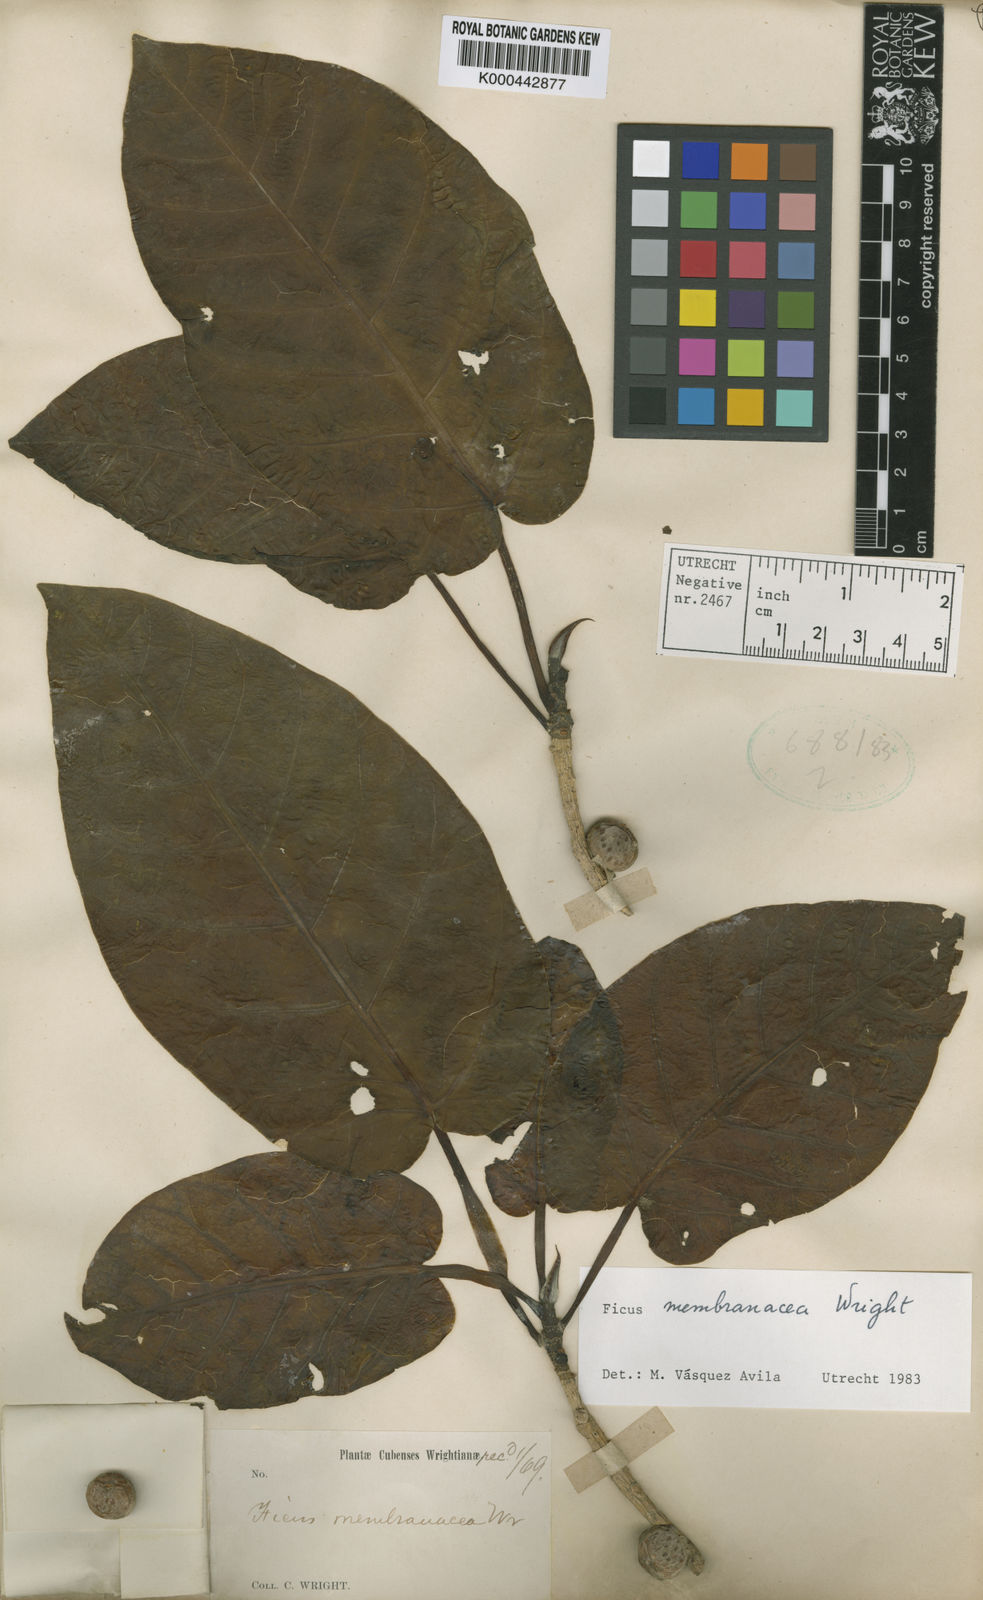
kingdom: Plantae
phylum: Tracheophyta
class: Magnoliopsida
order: Rosales
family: Moraceae
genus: Ficus
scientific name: Ficus membranacea
